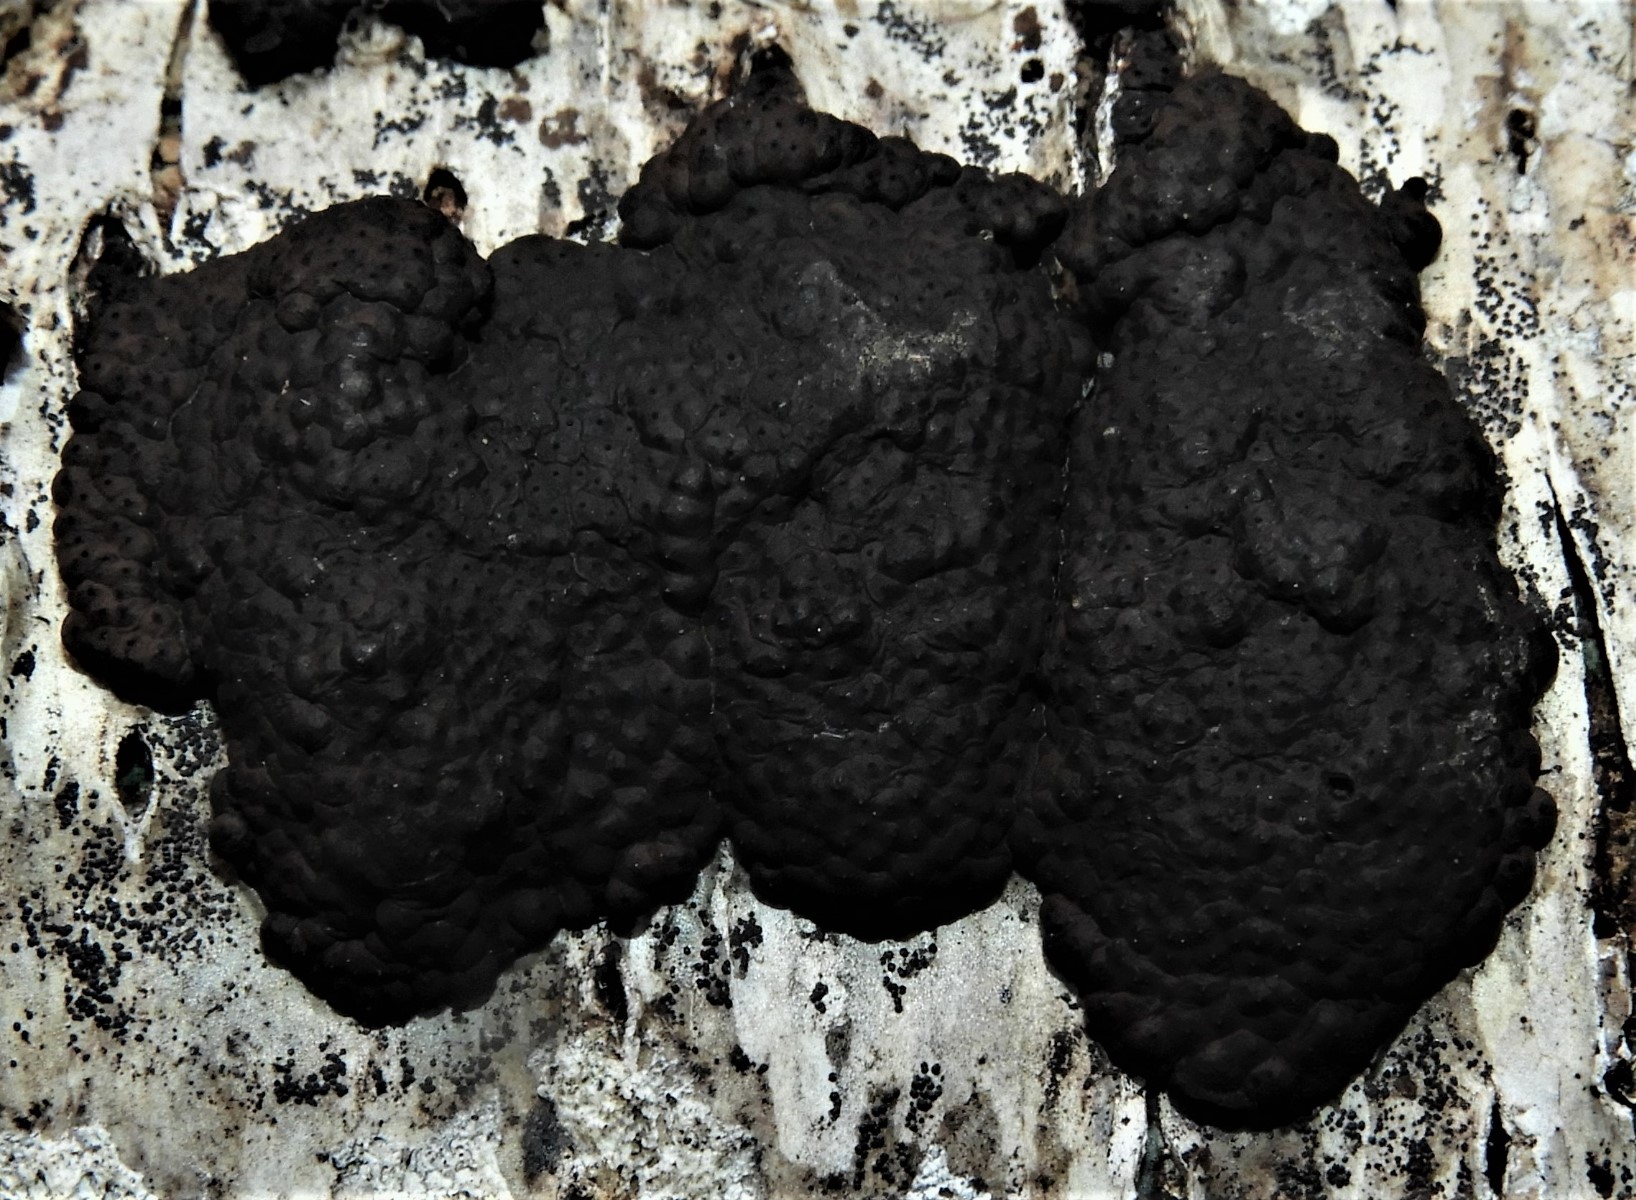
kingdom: Fungi
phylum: Ascomycota
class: Sordariomycetes
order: Xylariales
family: Hypoxylaceae
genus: Jackrogersella
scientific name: Jackrogersella multiformis
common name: foranderlig kulbær
